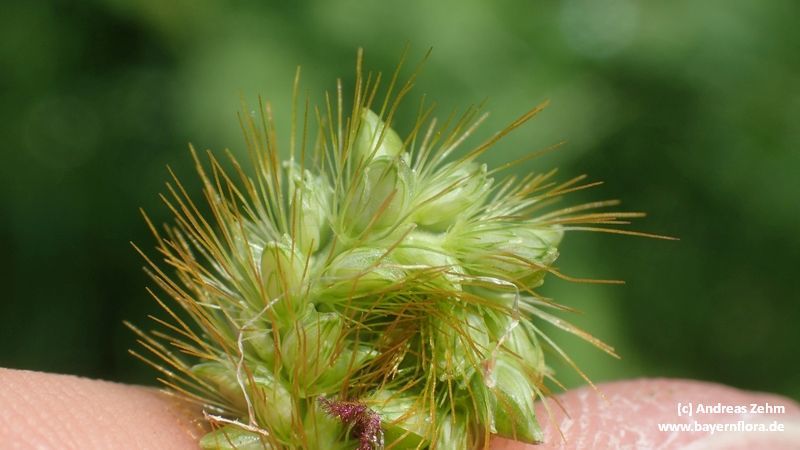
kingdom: Plantae
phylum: Tracheophyta
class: Liliopsida
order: Poales
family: Poaceae
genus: Setaria
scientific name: Setaria pumila
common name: Yellow bristle-grass
